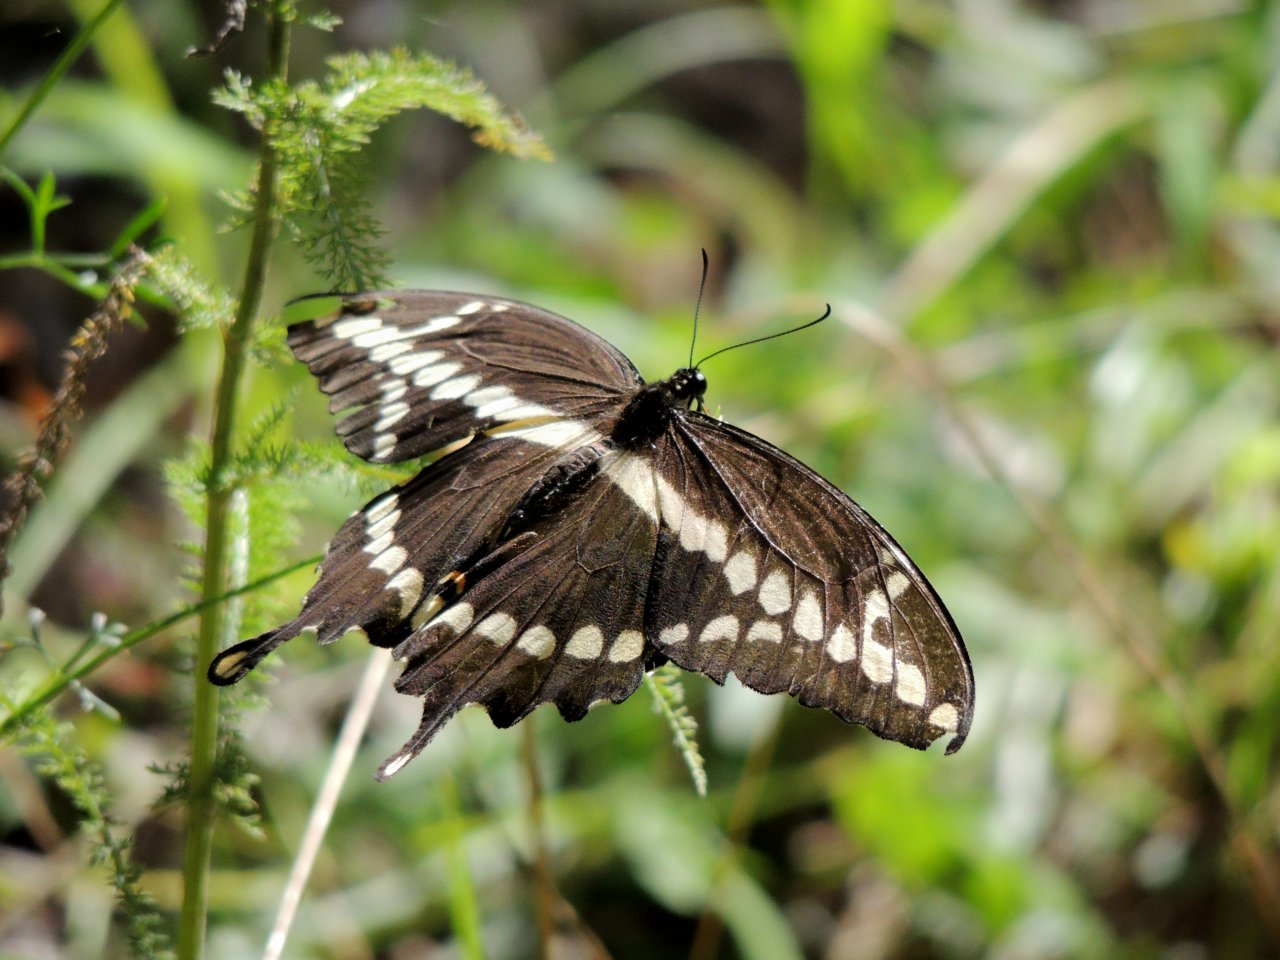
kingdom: Animalia
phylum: Arthropoda
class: Insecta
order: Lepidoptera
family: Papilionidae
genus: Papilio
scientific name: Papilio cresphontes
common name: Eastern Giant Swallowtail
